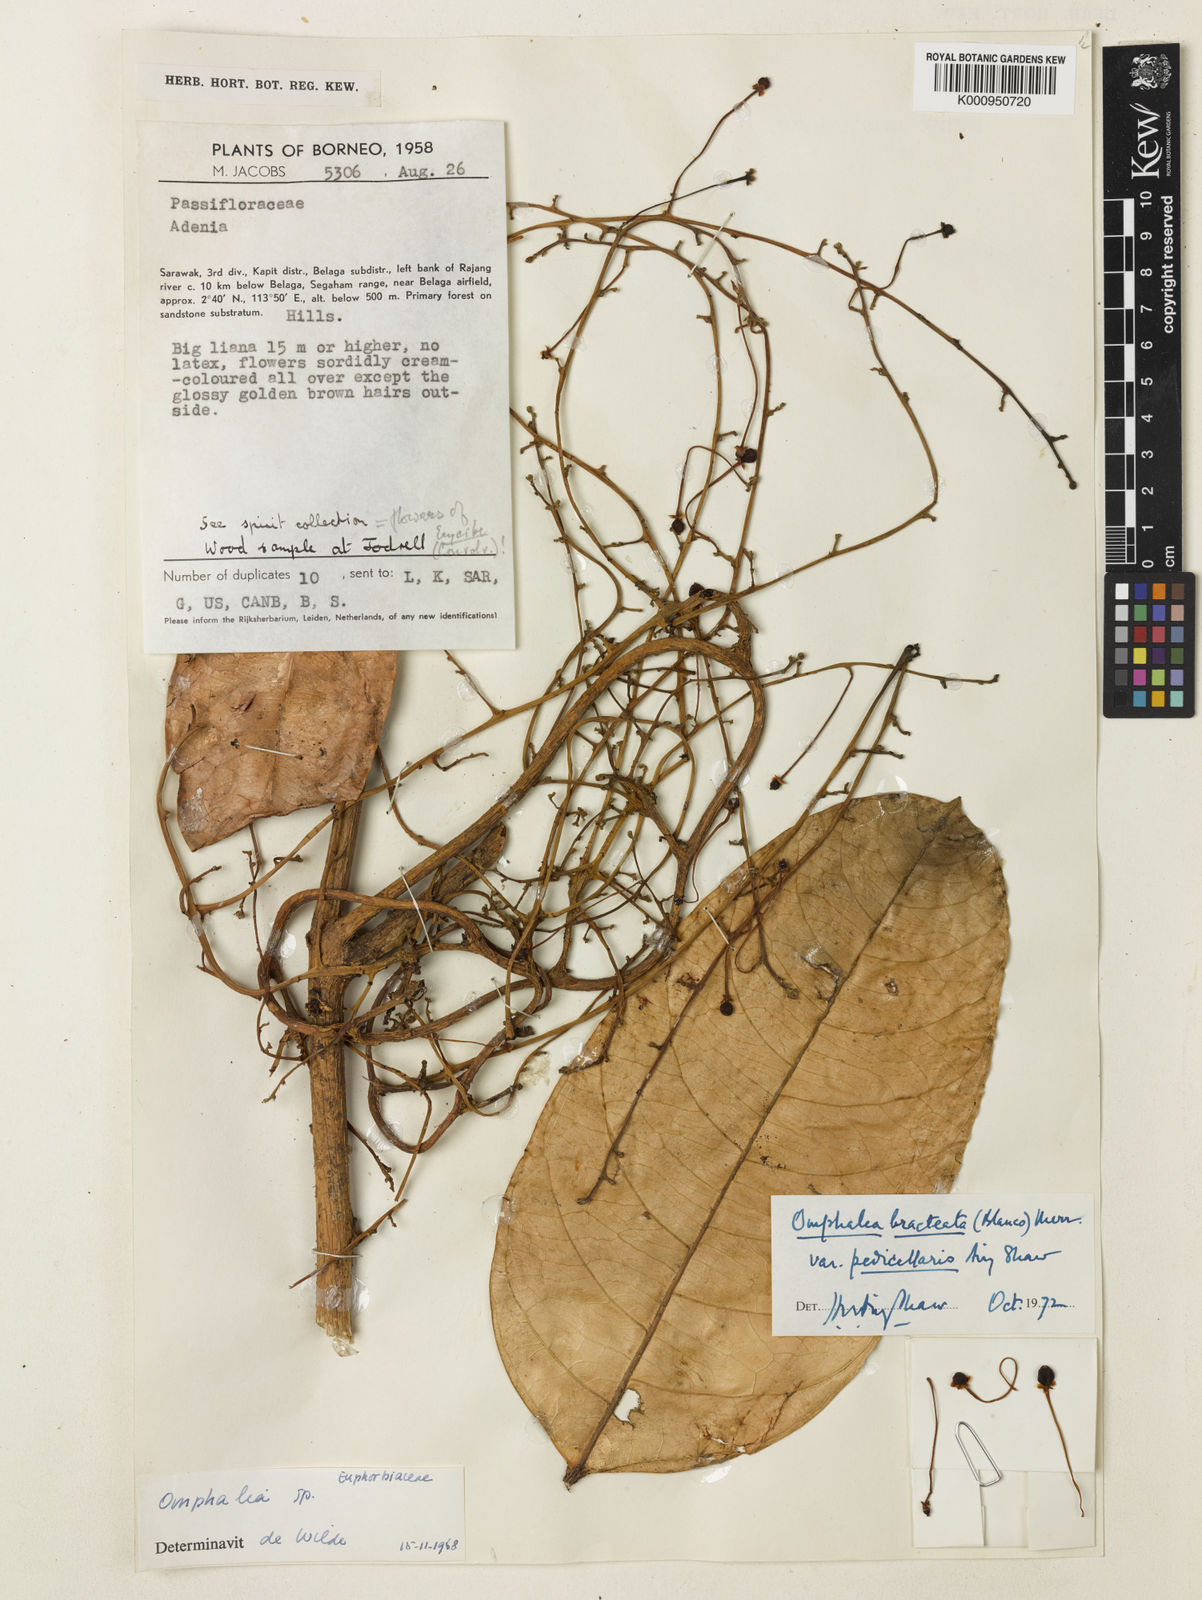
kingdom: Plantae
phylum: Tracheophyta
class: Magnoliopsida
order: Malpighiales
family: Euphorbiaceae
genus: Omphalea
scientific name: Omphalea bracteata
